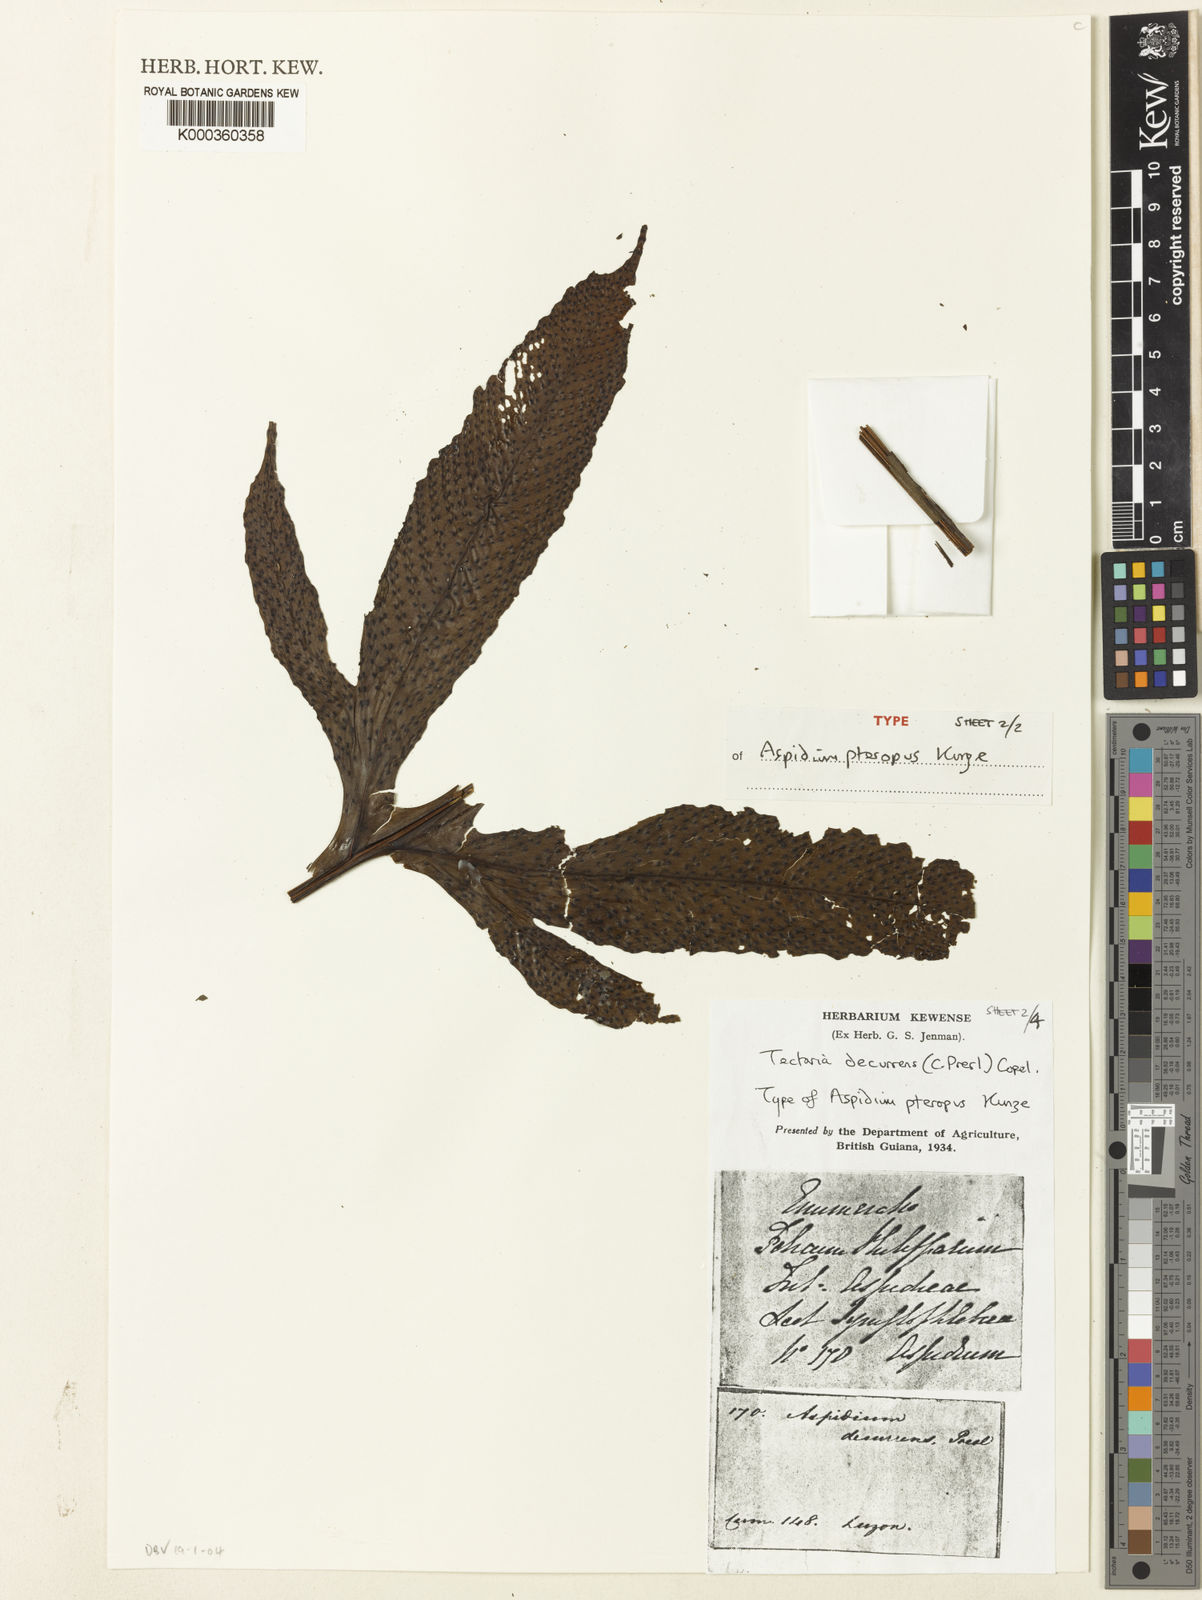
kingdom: Plantae
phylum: Tracheophyta
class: Polypodiopsida
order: Polypodiales
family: Tectariaceae
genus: Tectaria
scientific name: Tectaria decurrens
